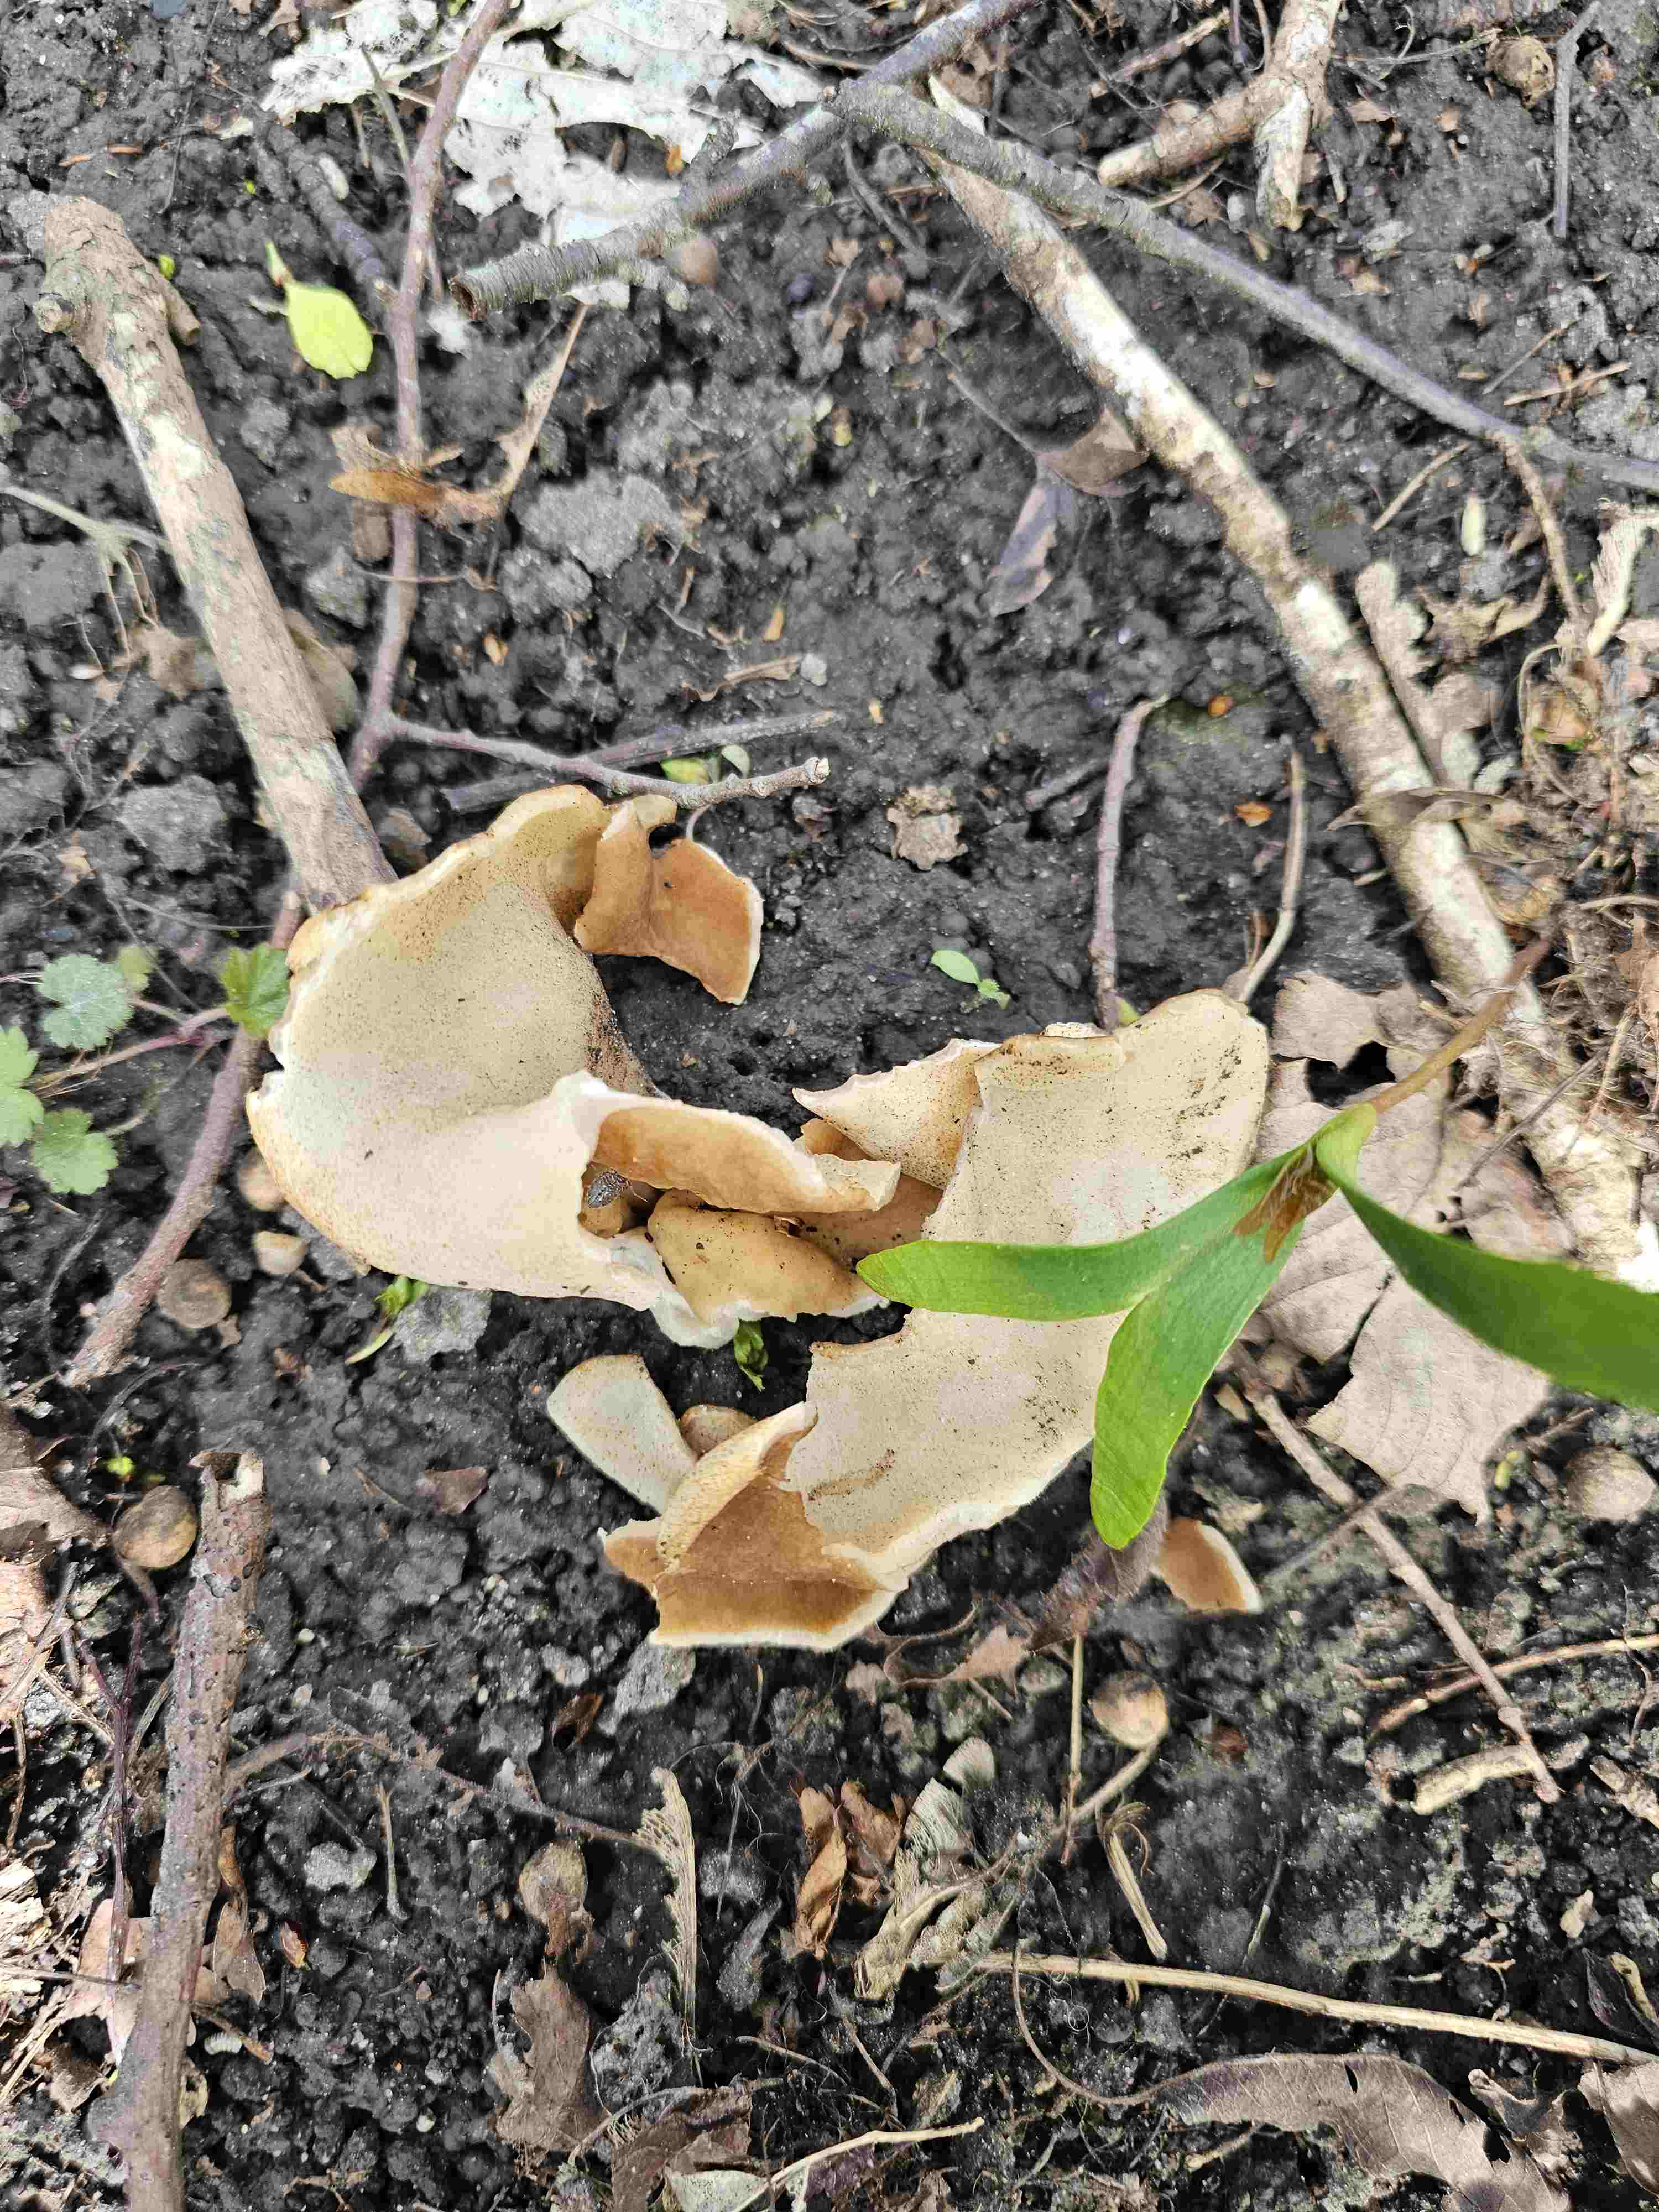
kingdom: Fungi
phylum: Ascomycota
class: Pezizomycetes
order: Pezizales
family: Morchellaceae
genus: Disciotis
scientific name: Disciotis venosa
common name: klor-bægermorkel
